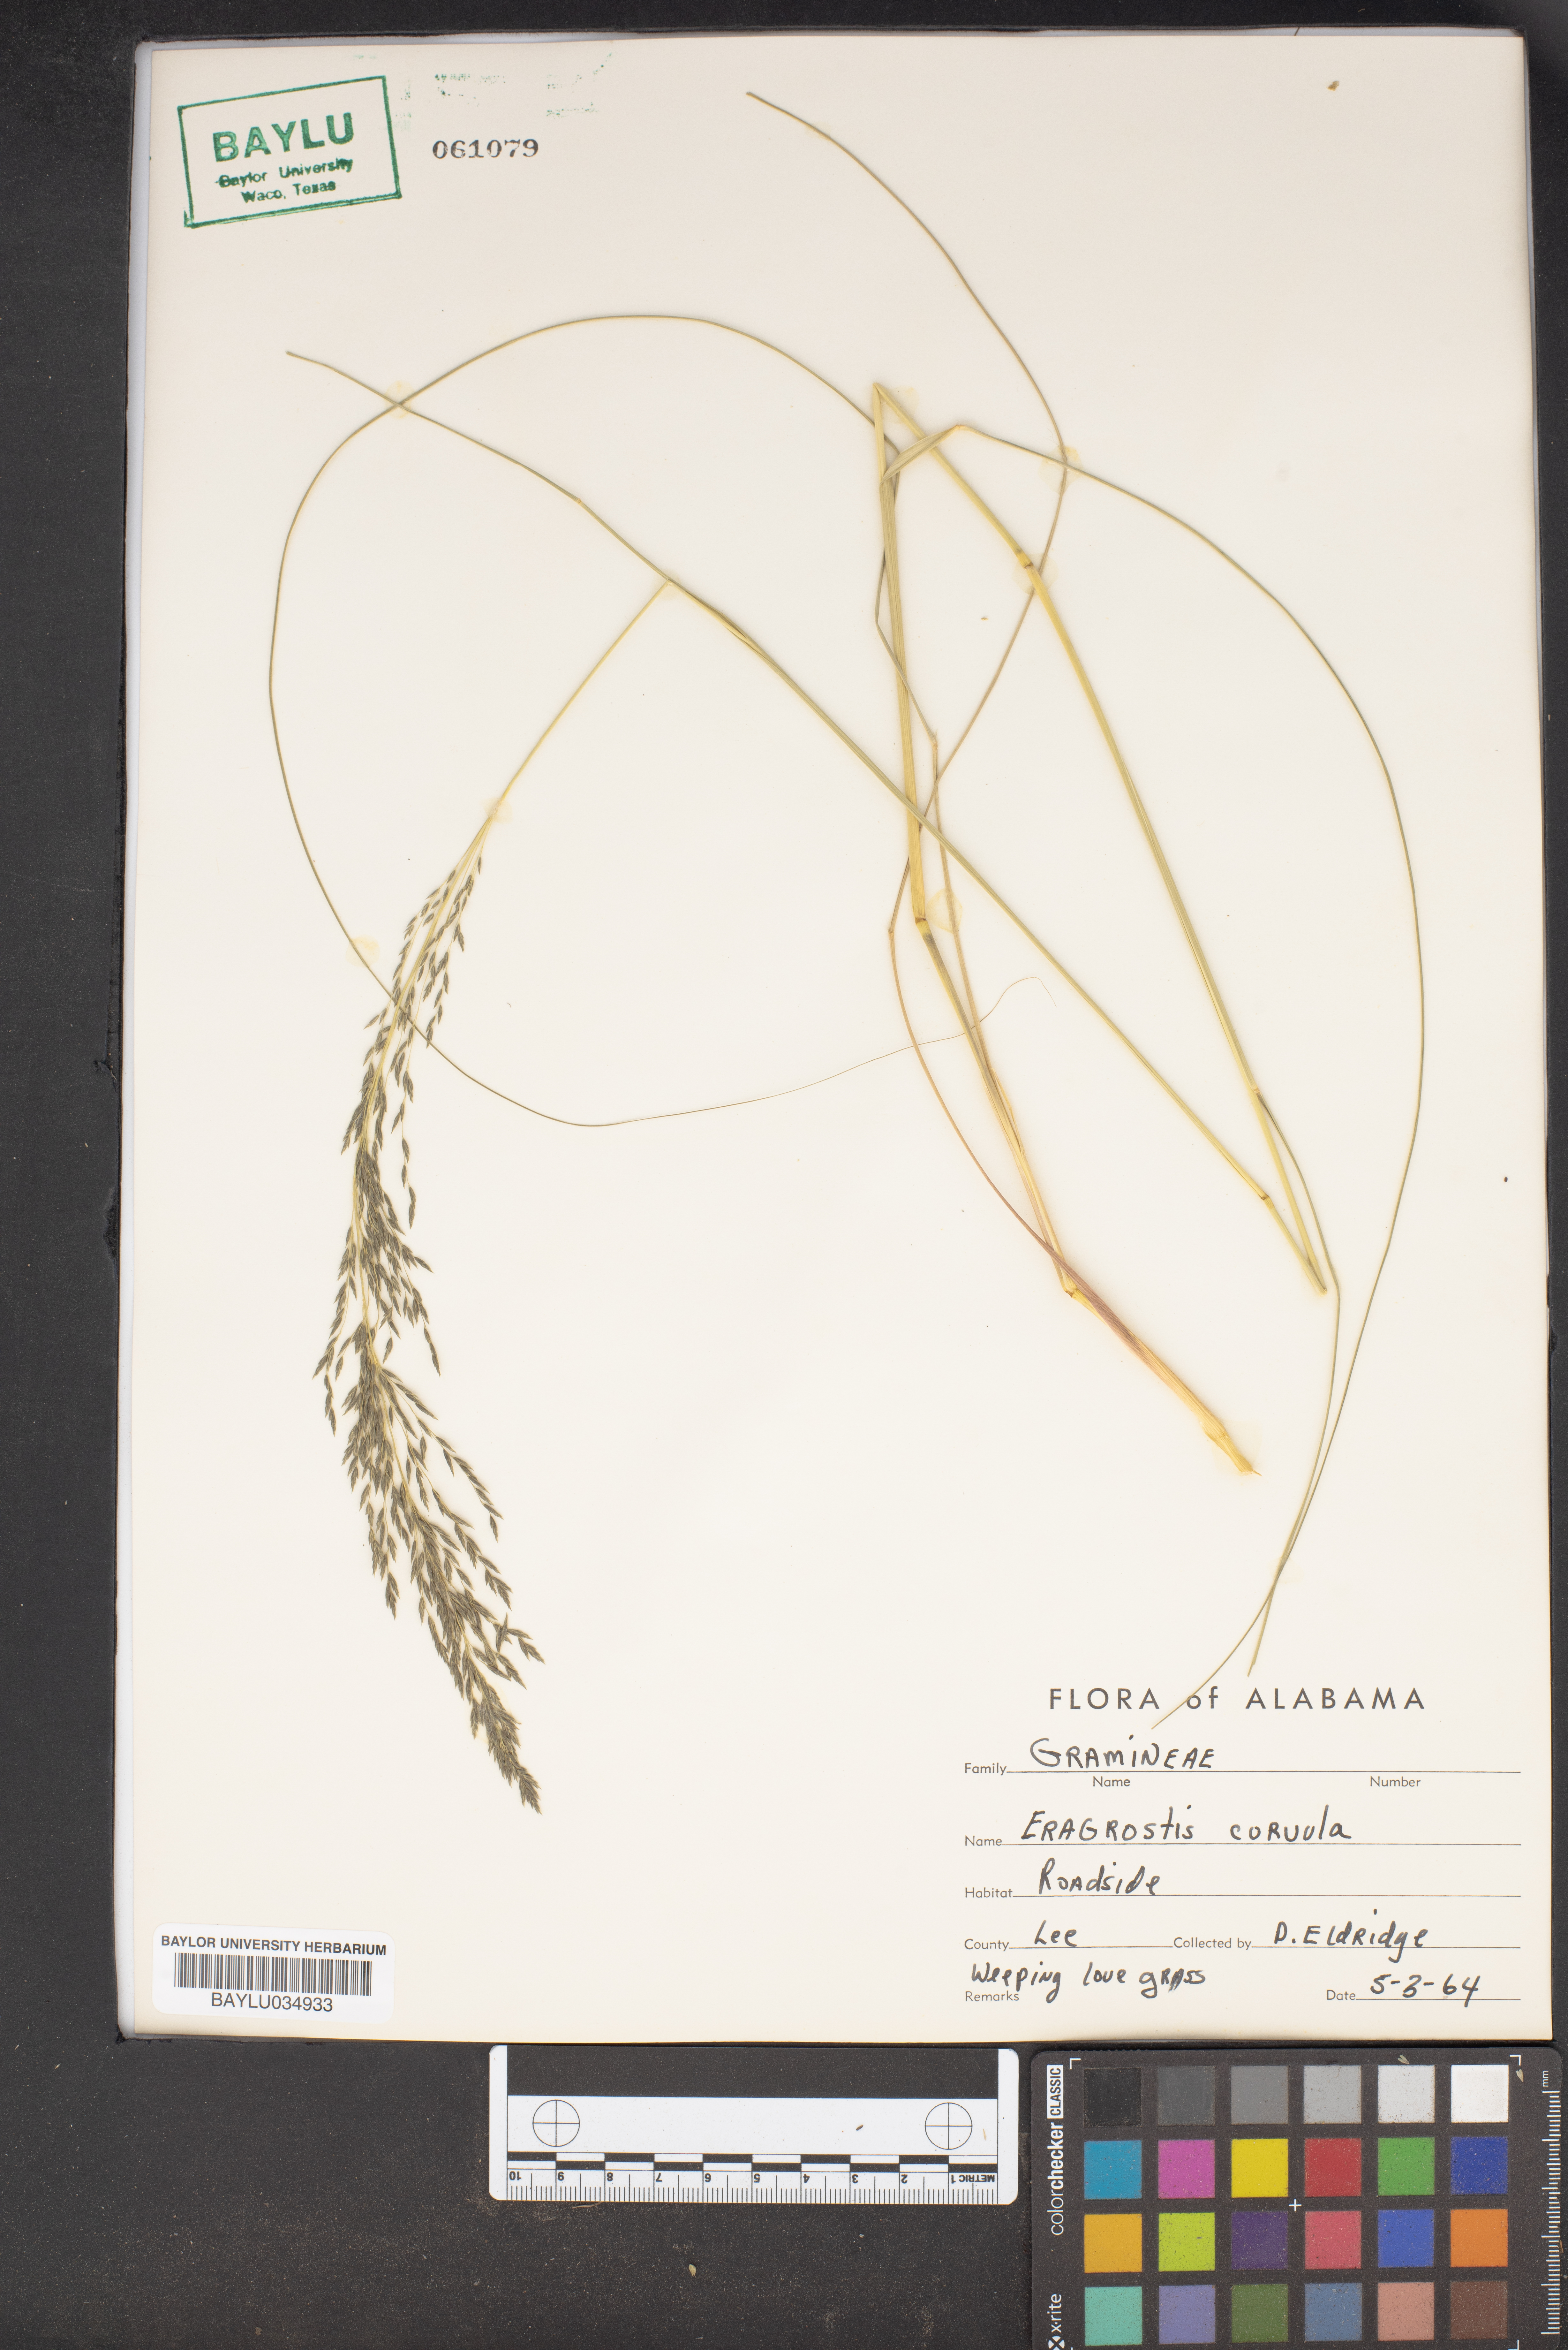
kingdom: Plantae
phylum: Tracheophyta
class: Liliopsida
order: Poales
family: Poaceae
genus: Eragrostis
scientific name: Eragrostis
